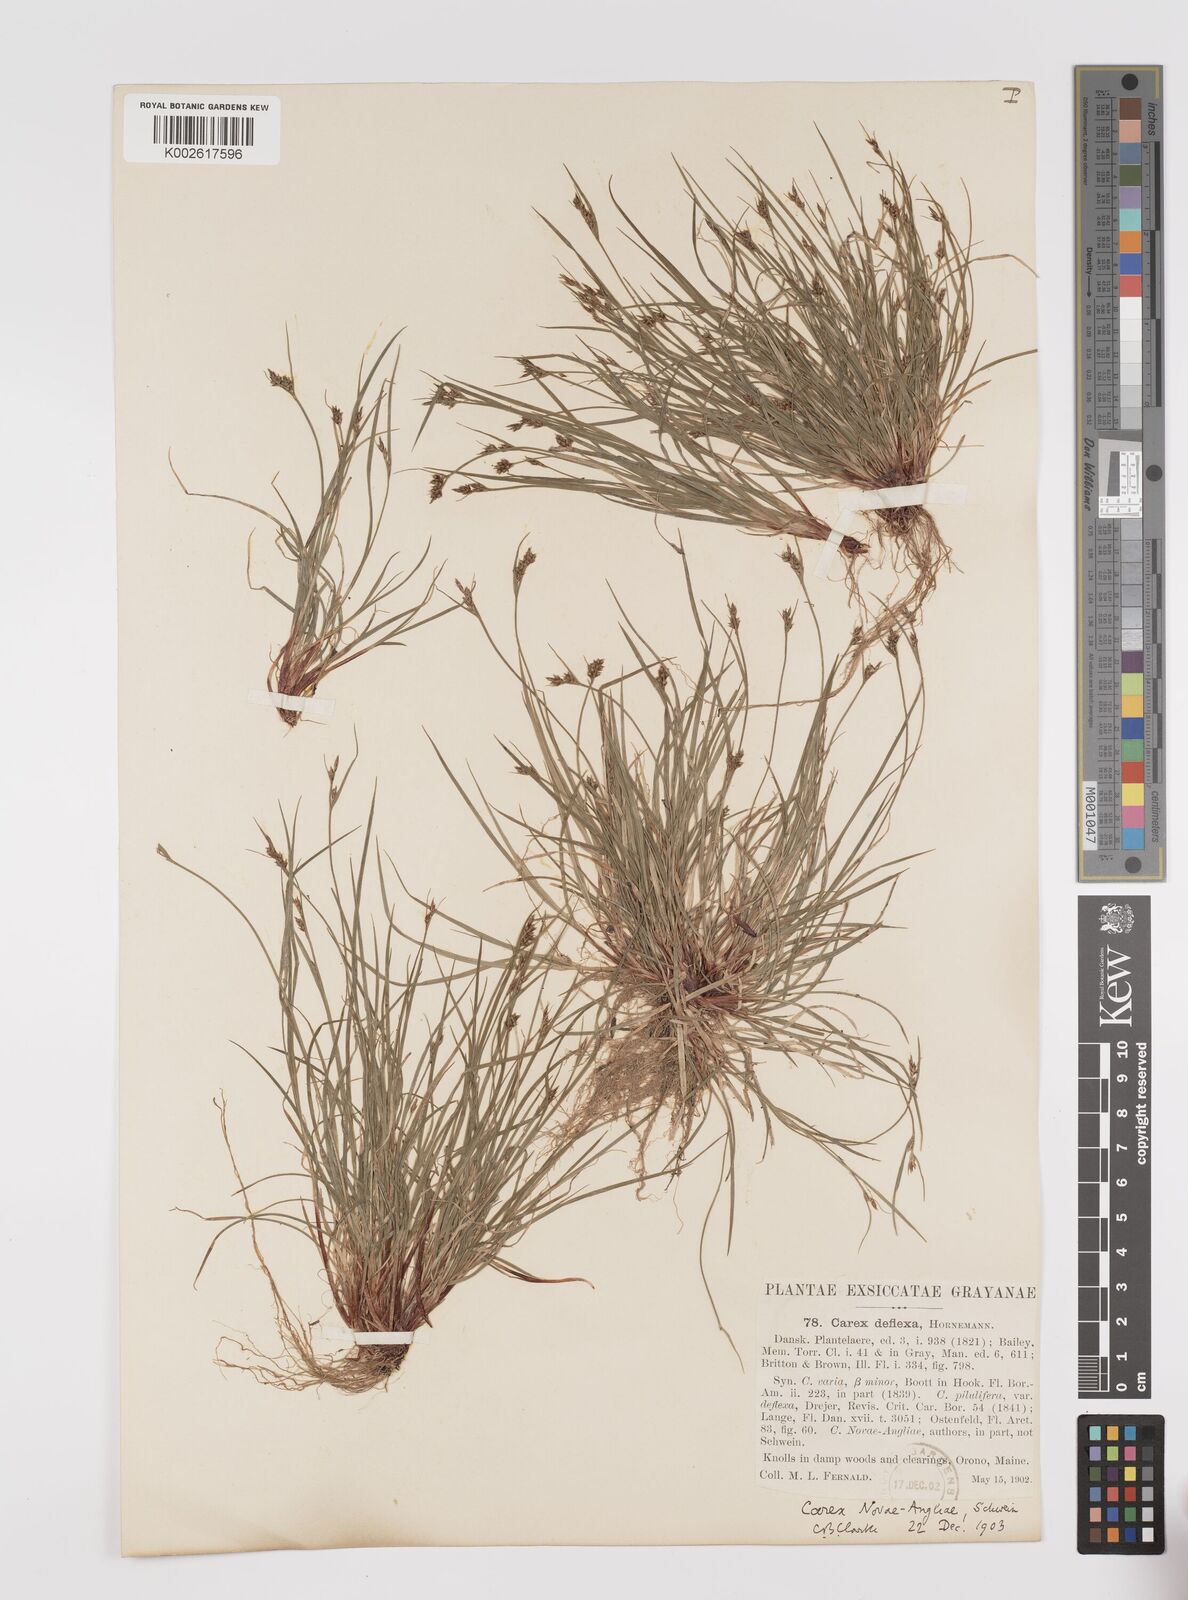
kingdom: Plantae
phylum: Tracheophyta
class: Liliopsida
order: Poales
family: Cyperaceae
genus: Carex
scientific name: Carex deflexa
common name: Bent northern sedge
